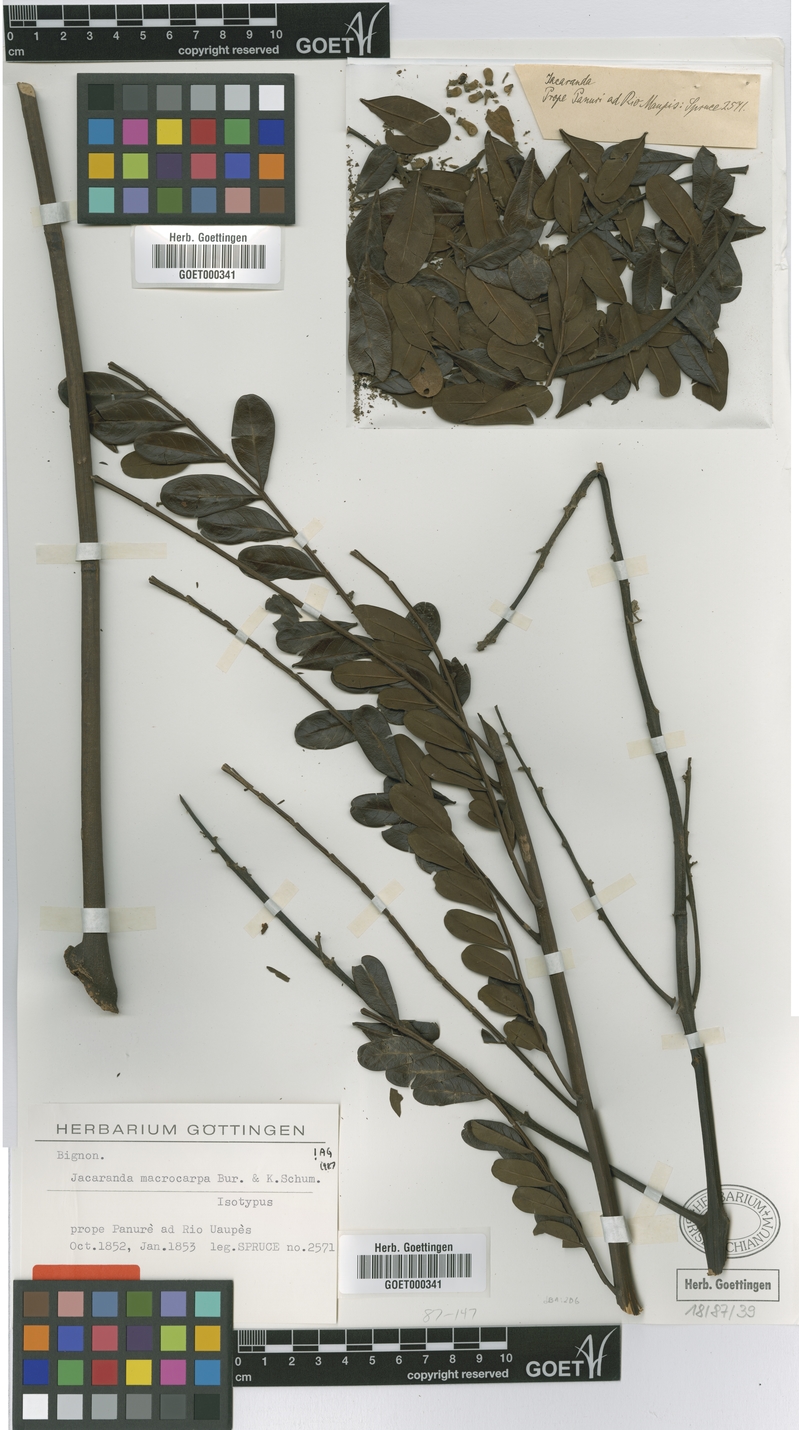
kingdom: Plantae
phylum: Tracheophyta
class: Magnoliopsida
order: Lamiales
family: Bignoniaceae
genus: Jacaranda
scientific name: Jacaranda macrocarpa
